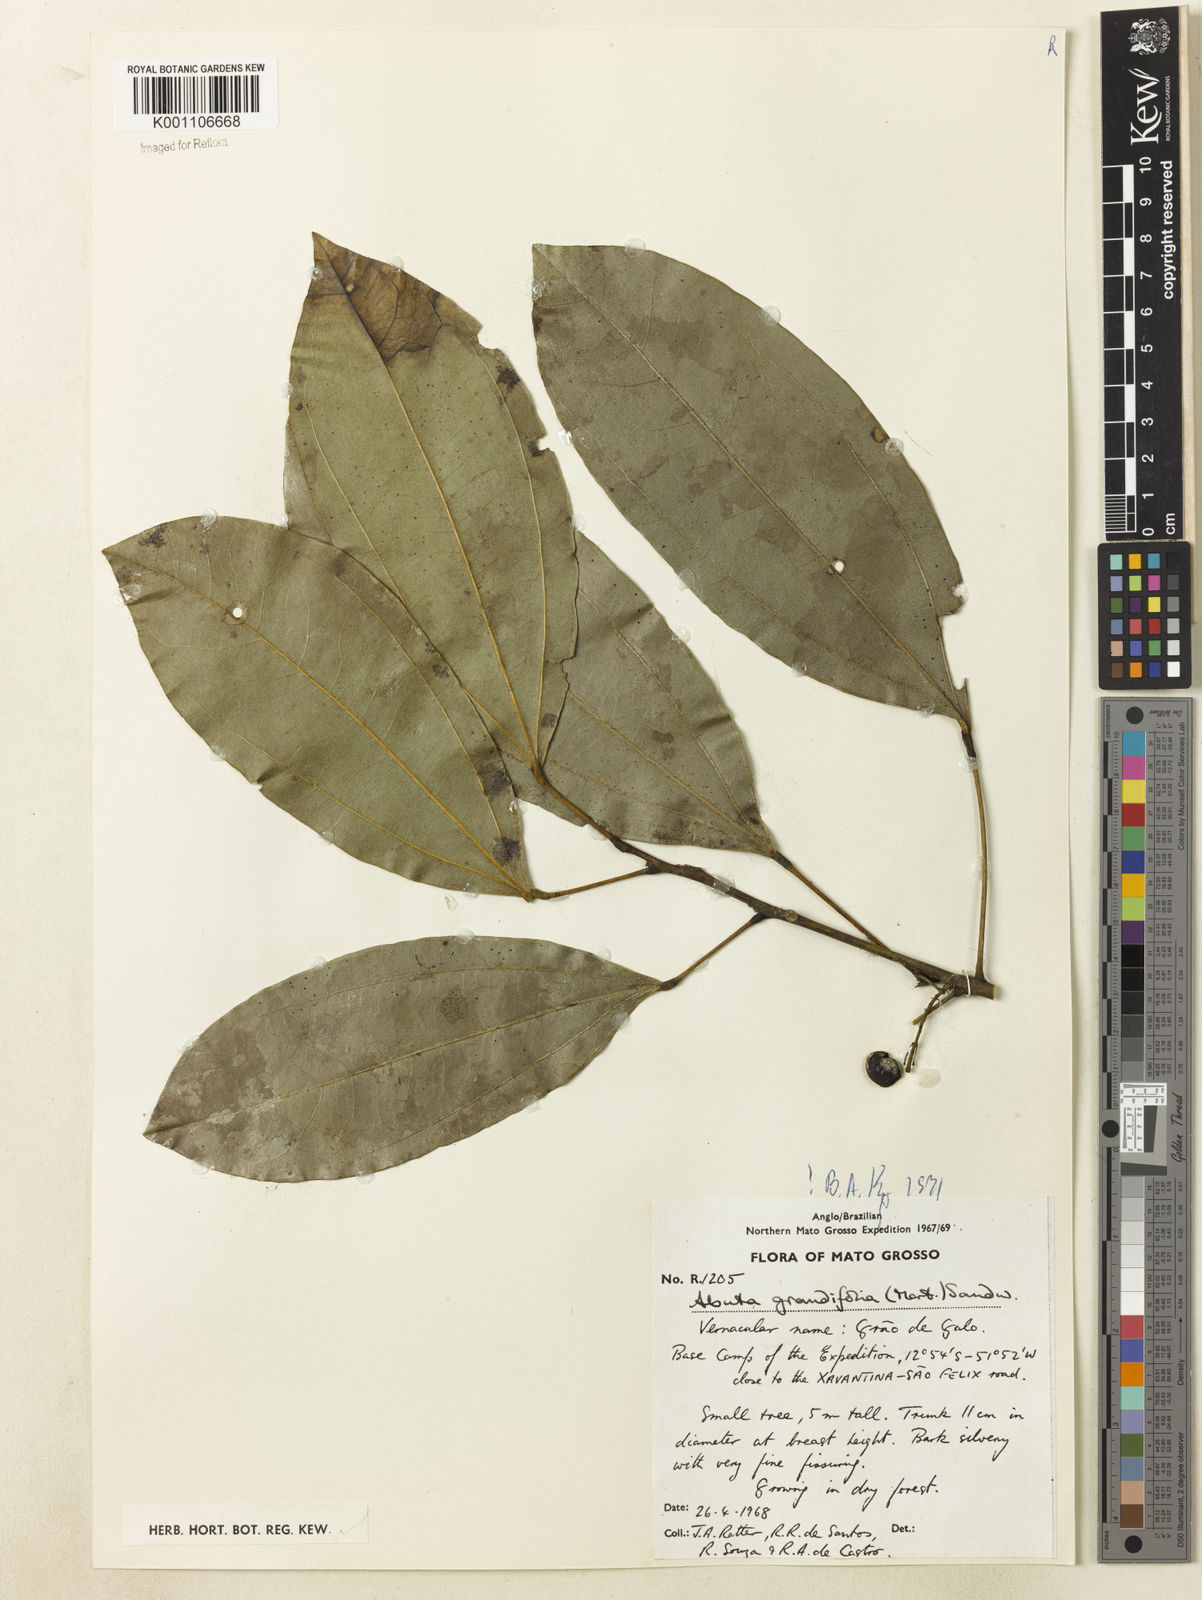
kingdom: Plantae
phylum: Tracheophyta
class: Magnoliopsida
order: Ranunculales
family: Menispermaceae
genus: Abuta
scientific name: Abuta grandifolia
